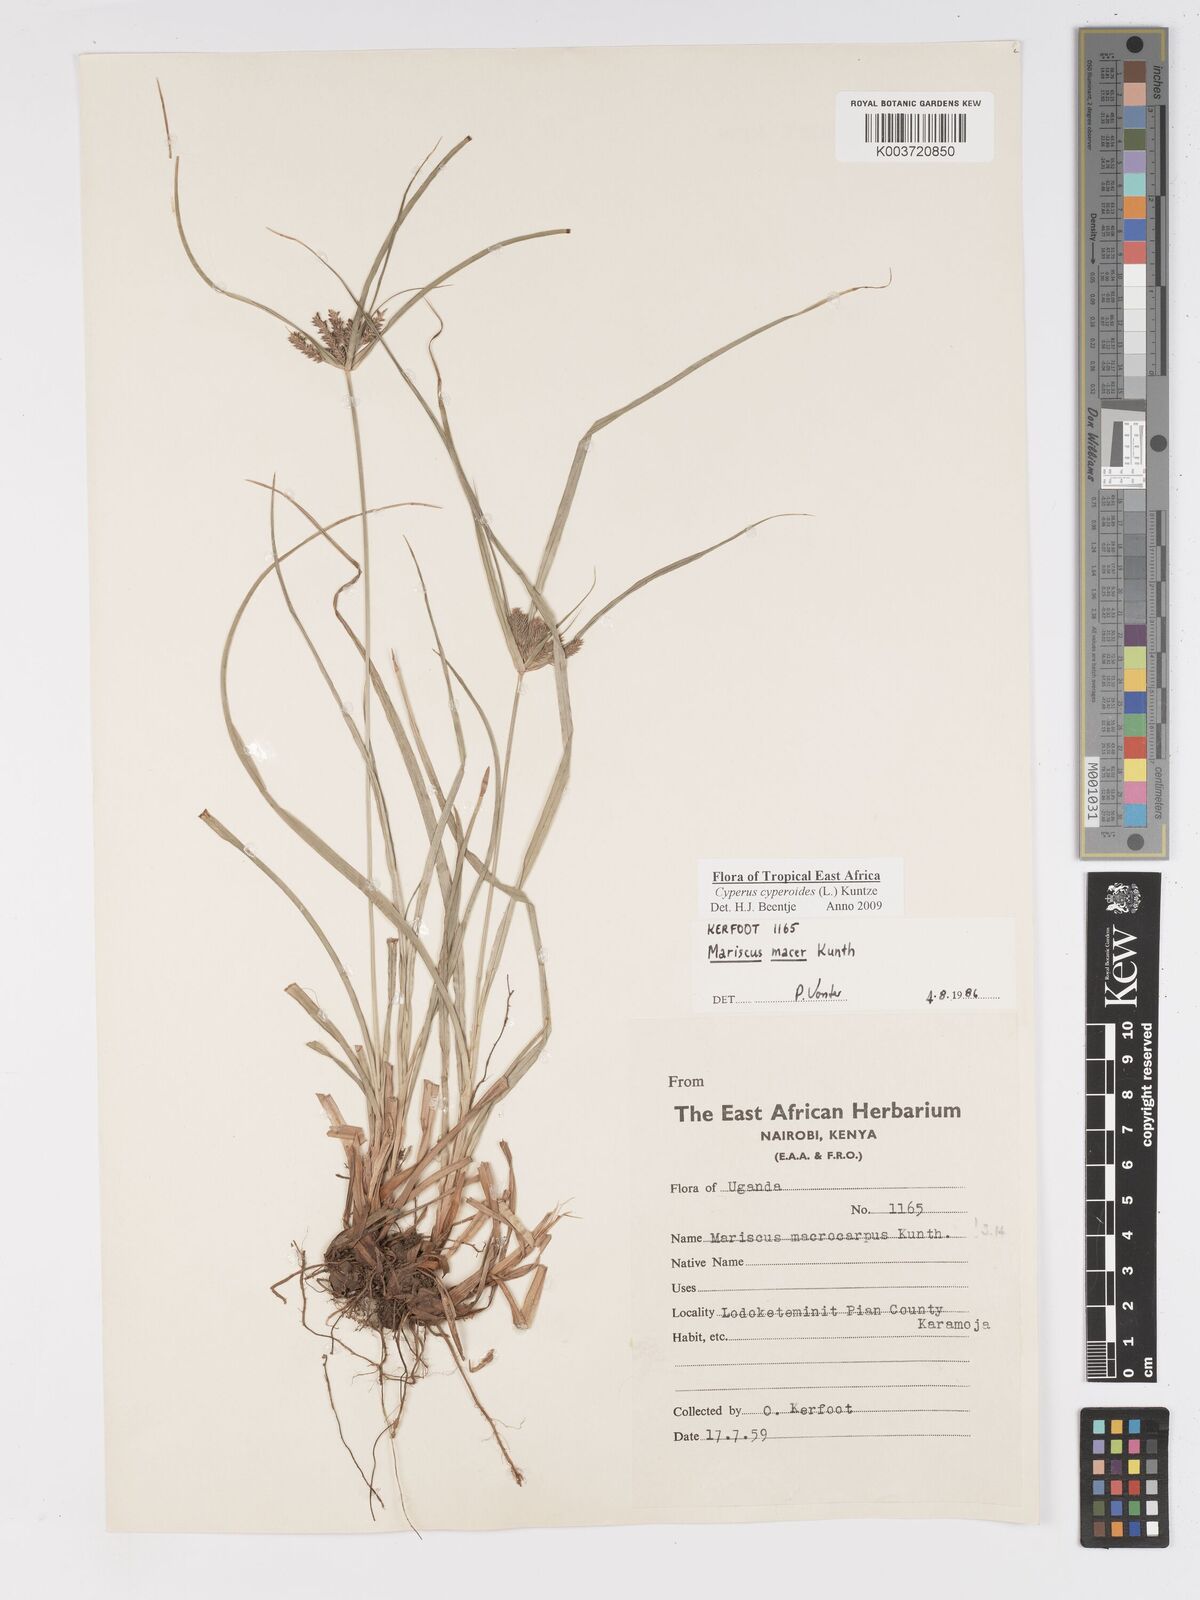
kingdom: Plantae
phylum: Tracheophyta
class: Liliopsida
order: Poales
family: Cyperaceae
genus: Cyperus
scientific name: Cyperus pseudoflavus
